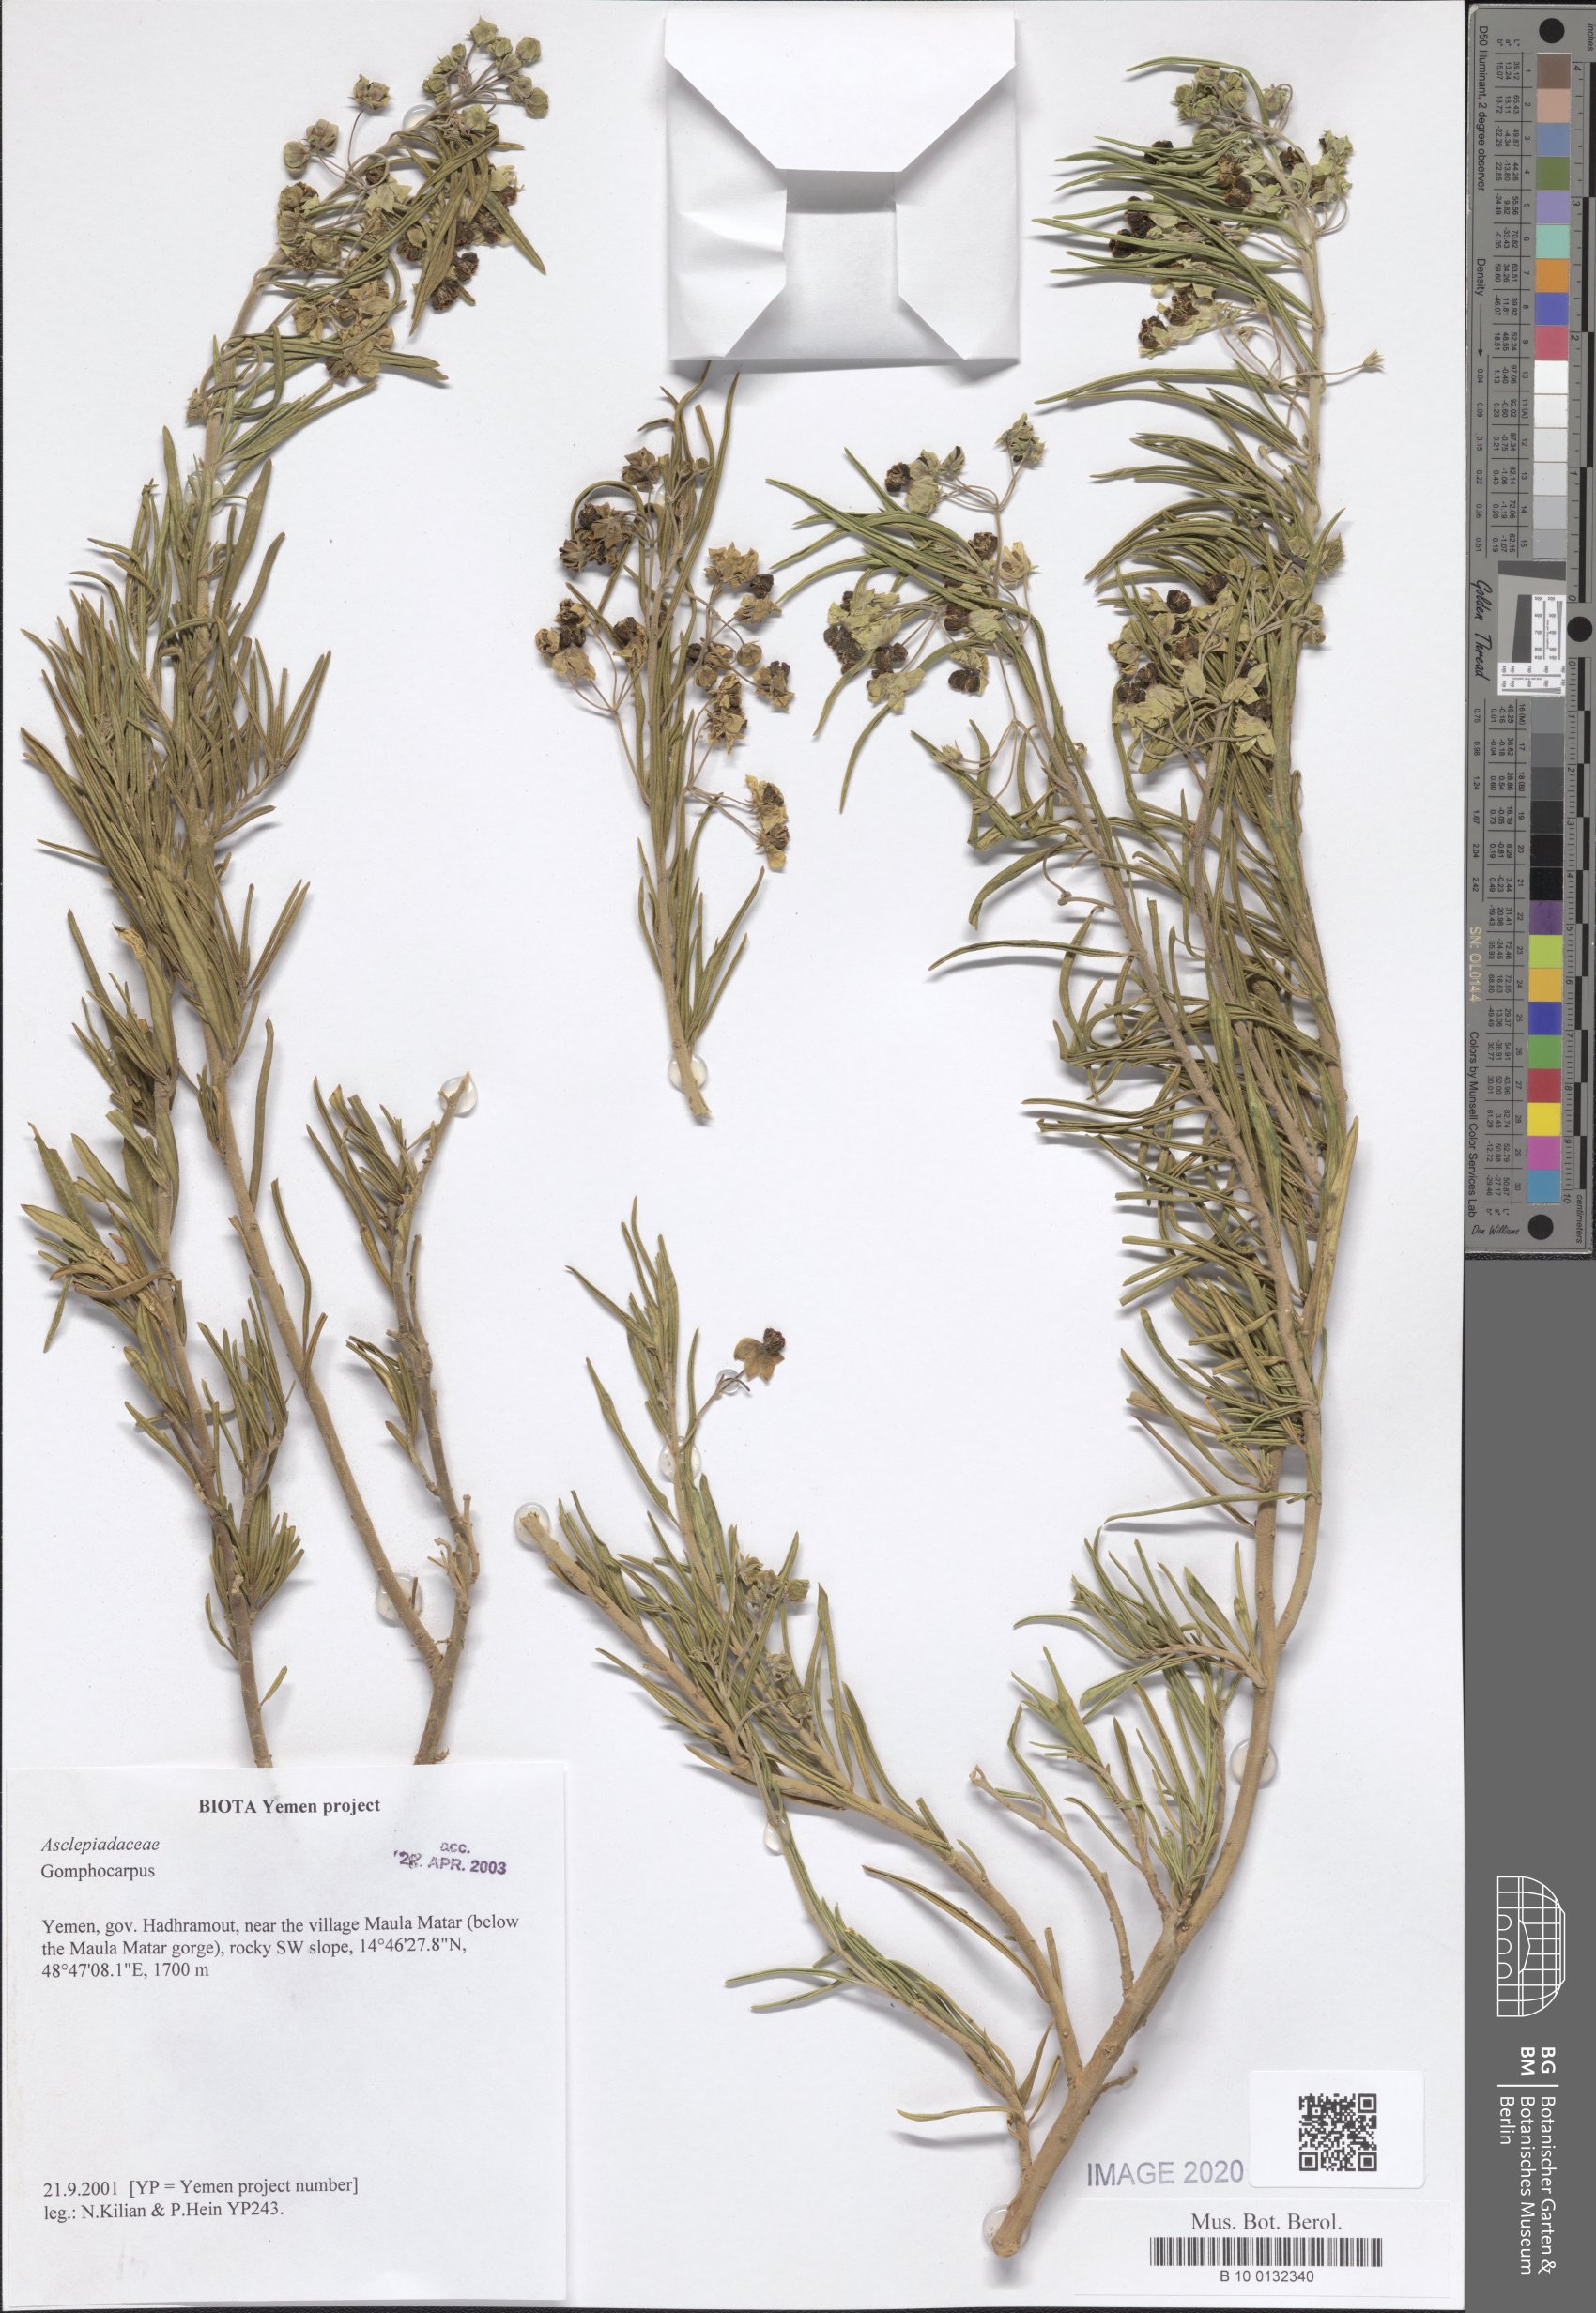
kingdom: Plantae
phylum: Tracheophyta
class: Magnoliopsida
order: Gentianales
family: Apocynaceae
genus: Gomphocarpus
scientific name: Gomphocarpus
